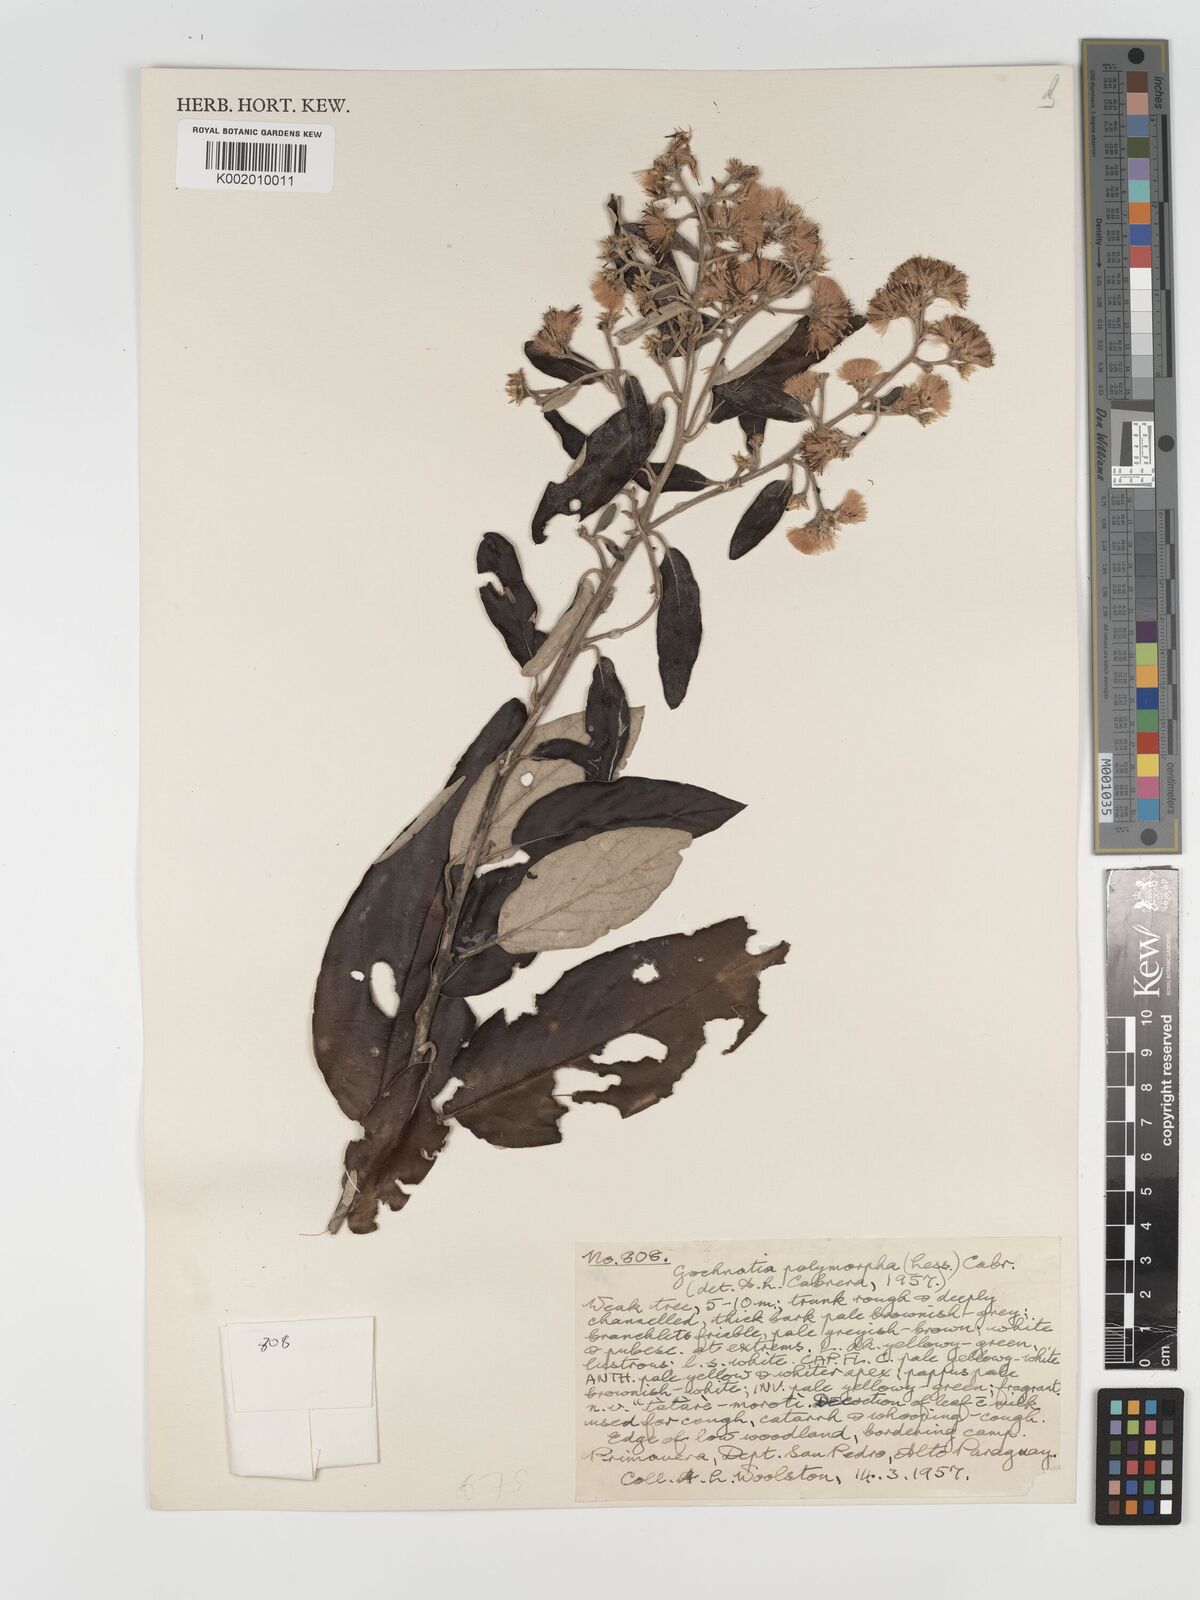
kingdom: Plantae
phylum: Tracheophyta
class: Magnoliopsida
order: Asterales
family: Asteraceae
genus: Moquiniastrum
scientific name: Moquiniastrum polymorphum
